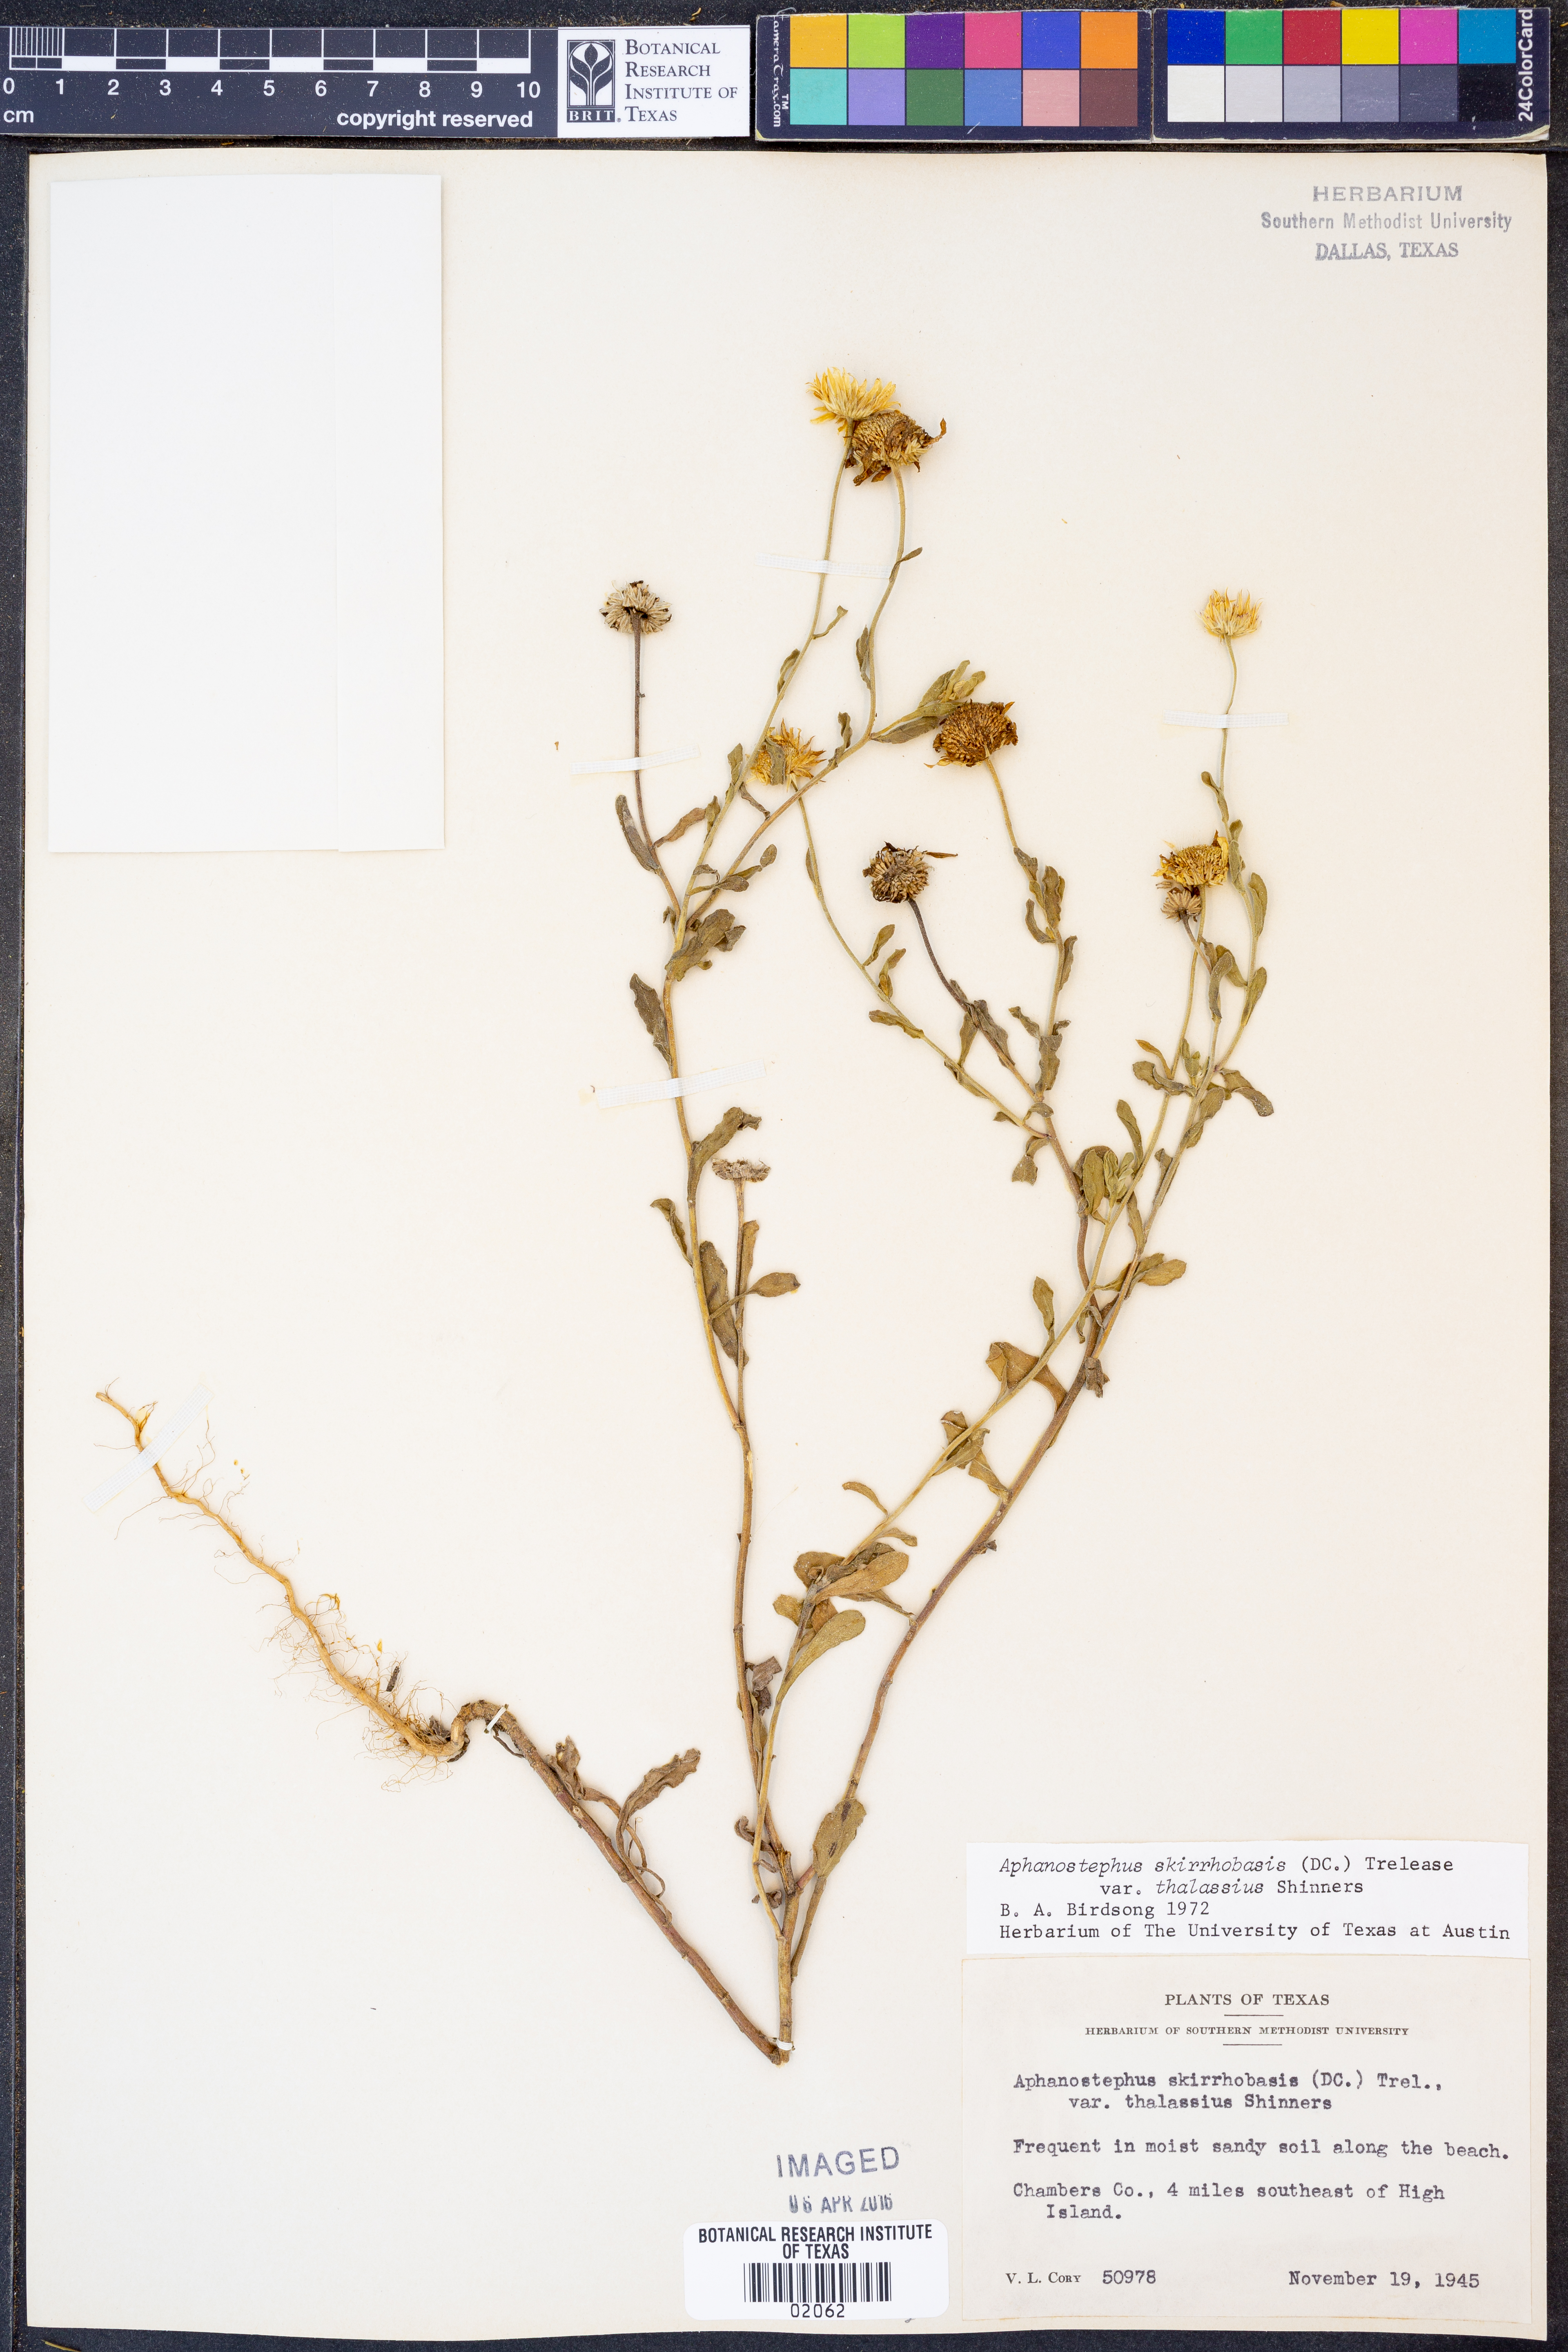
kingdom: Plantae
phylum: Tracheophyta
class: Magnoliopsida
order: Asterales
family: Asteraceae
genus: Aphanostephus
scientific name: Aphanostephus skirrhobasis
